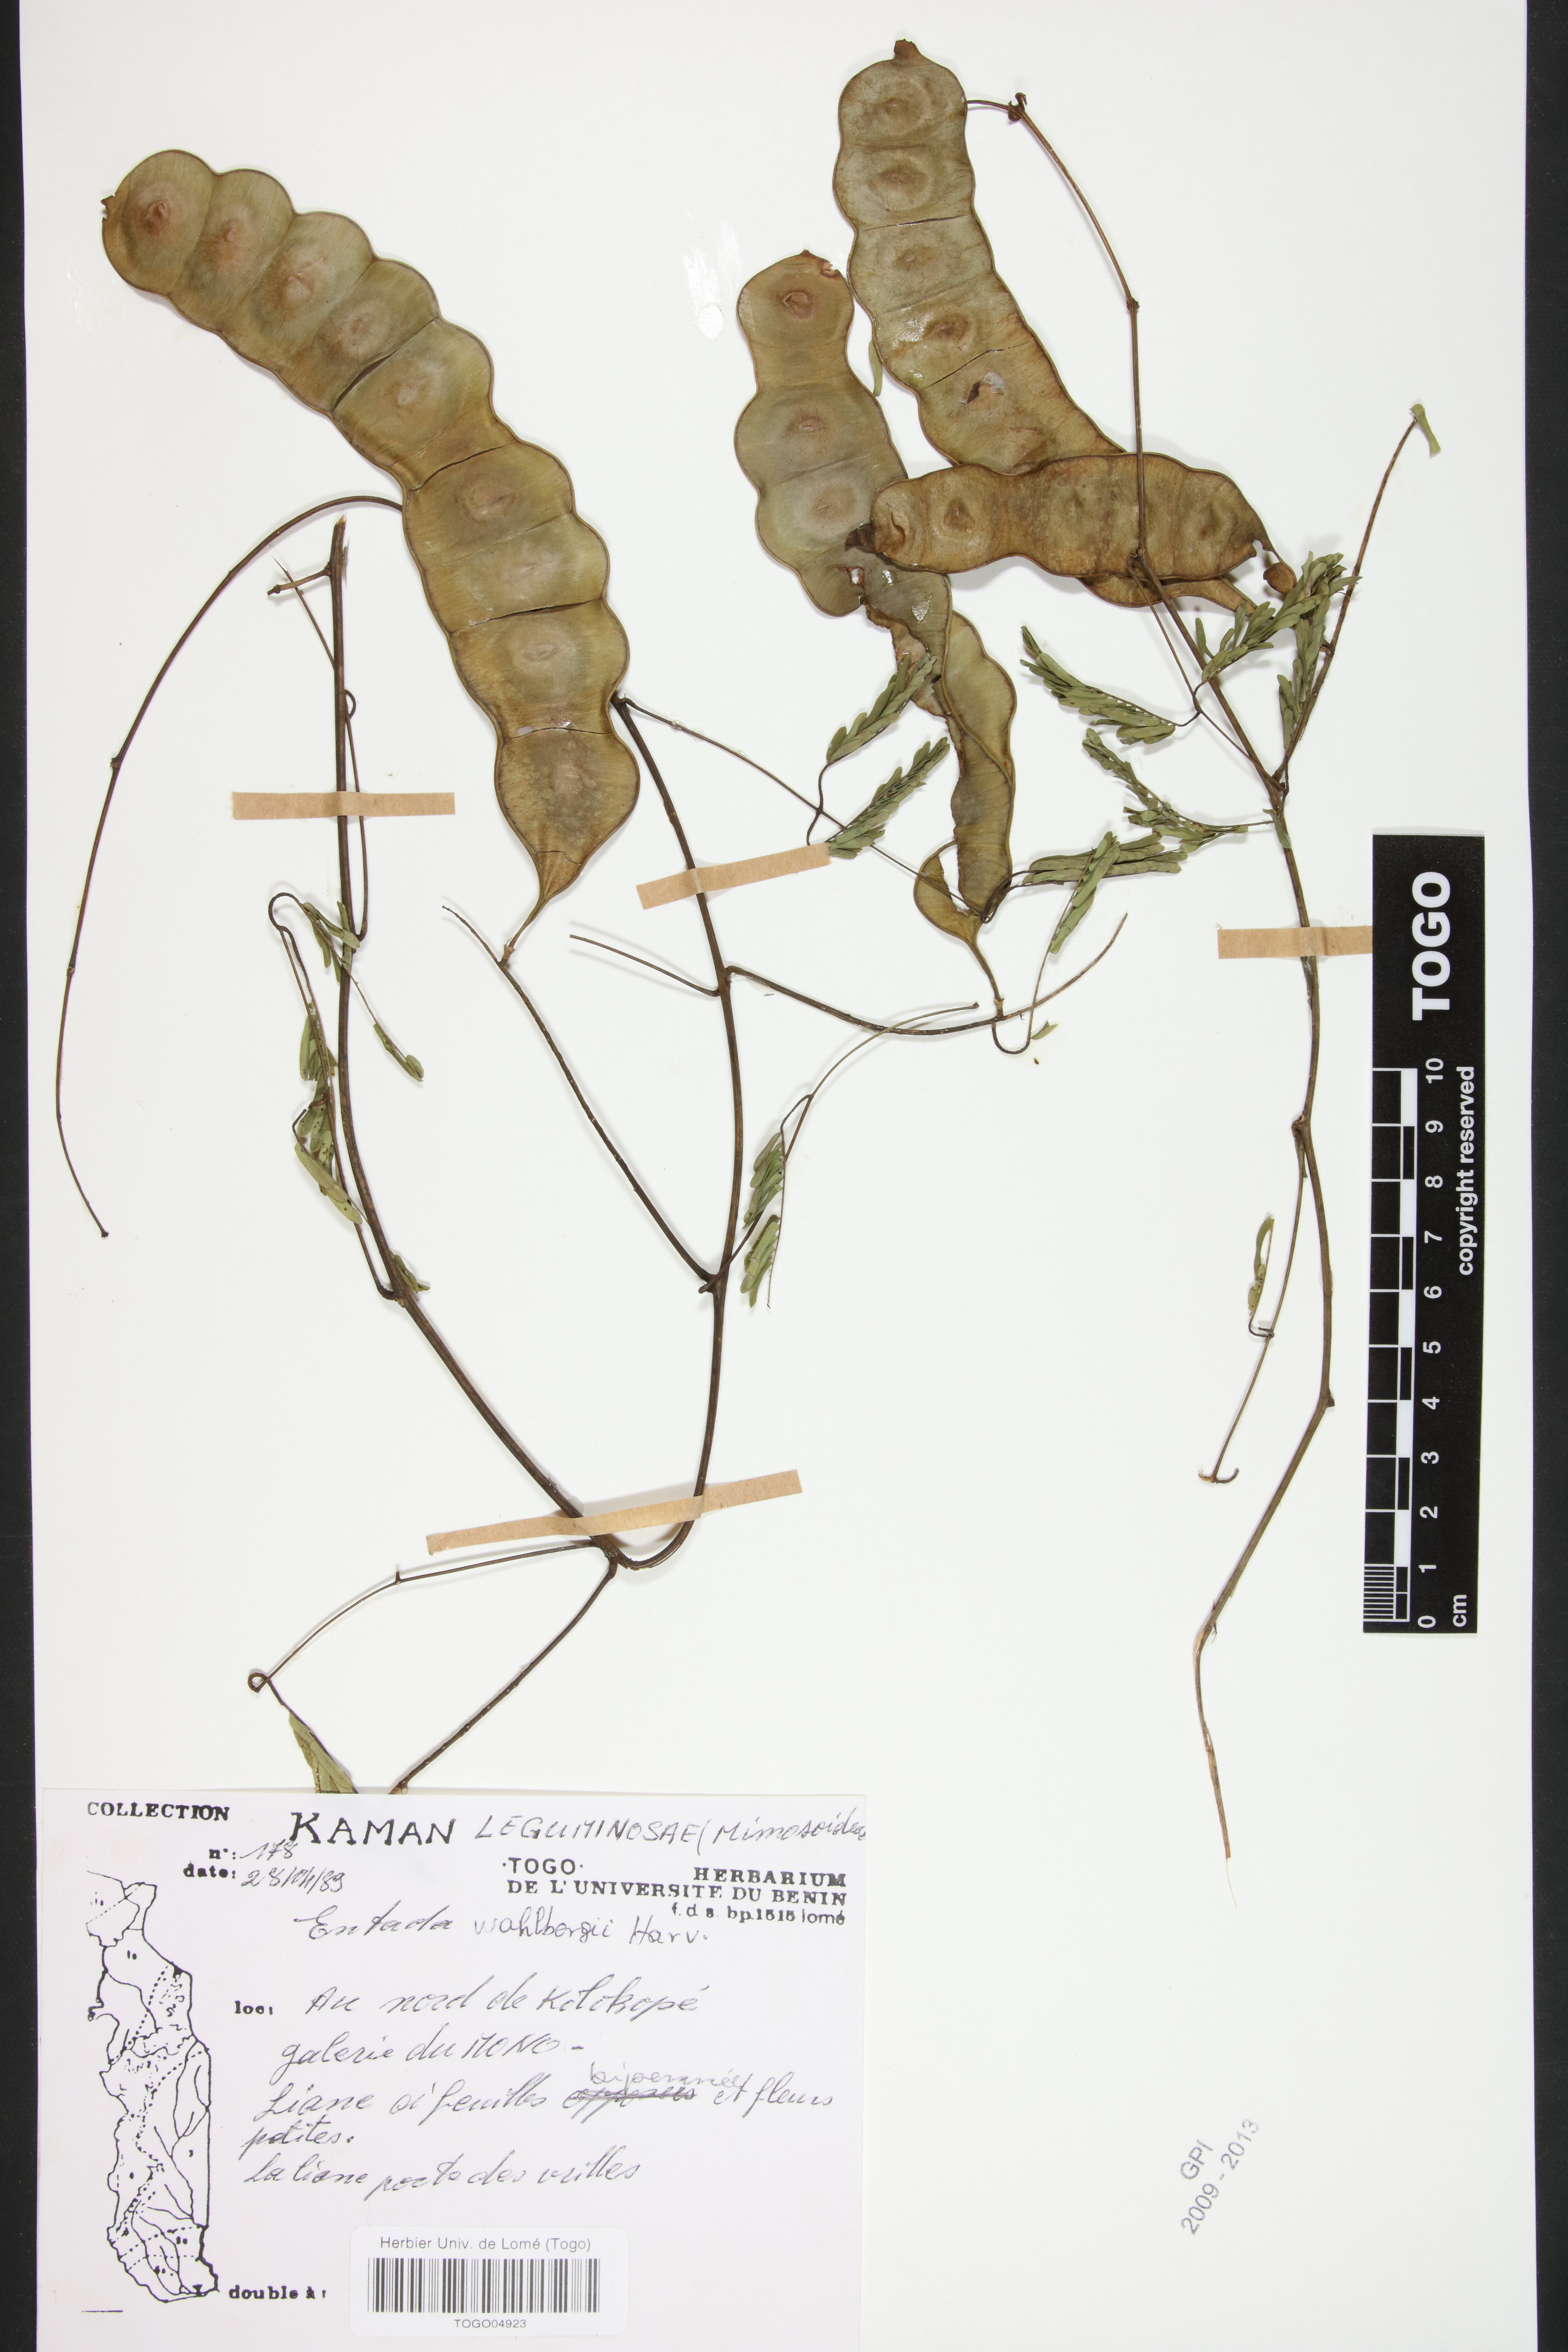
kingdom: Plantae
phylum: Tracheophyta
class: Magnoliopsida
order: Fabales
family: Fabaceae
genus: Entada
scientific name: Entada wahlbergii
